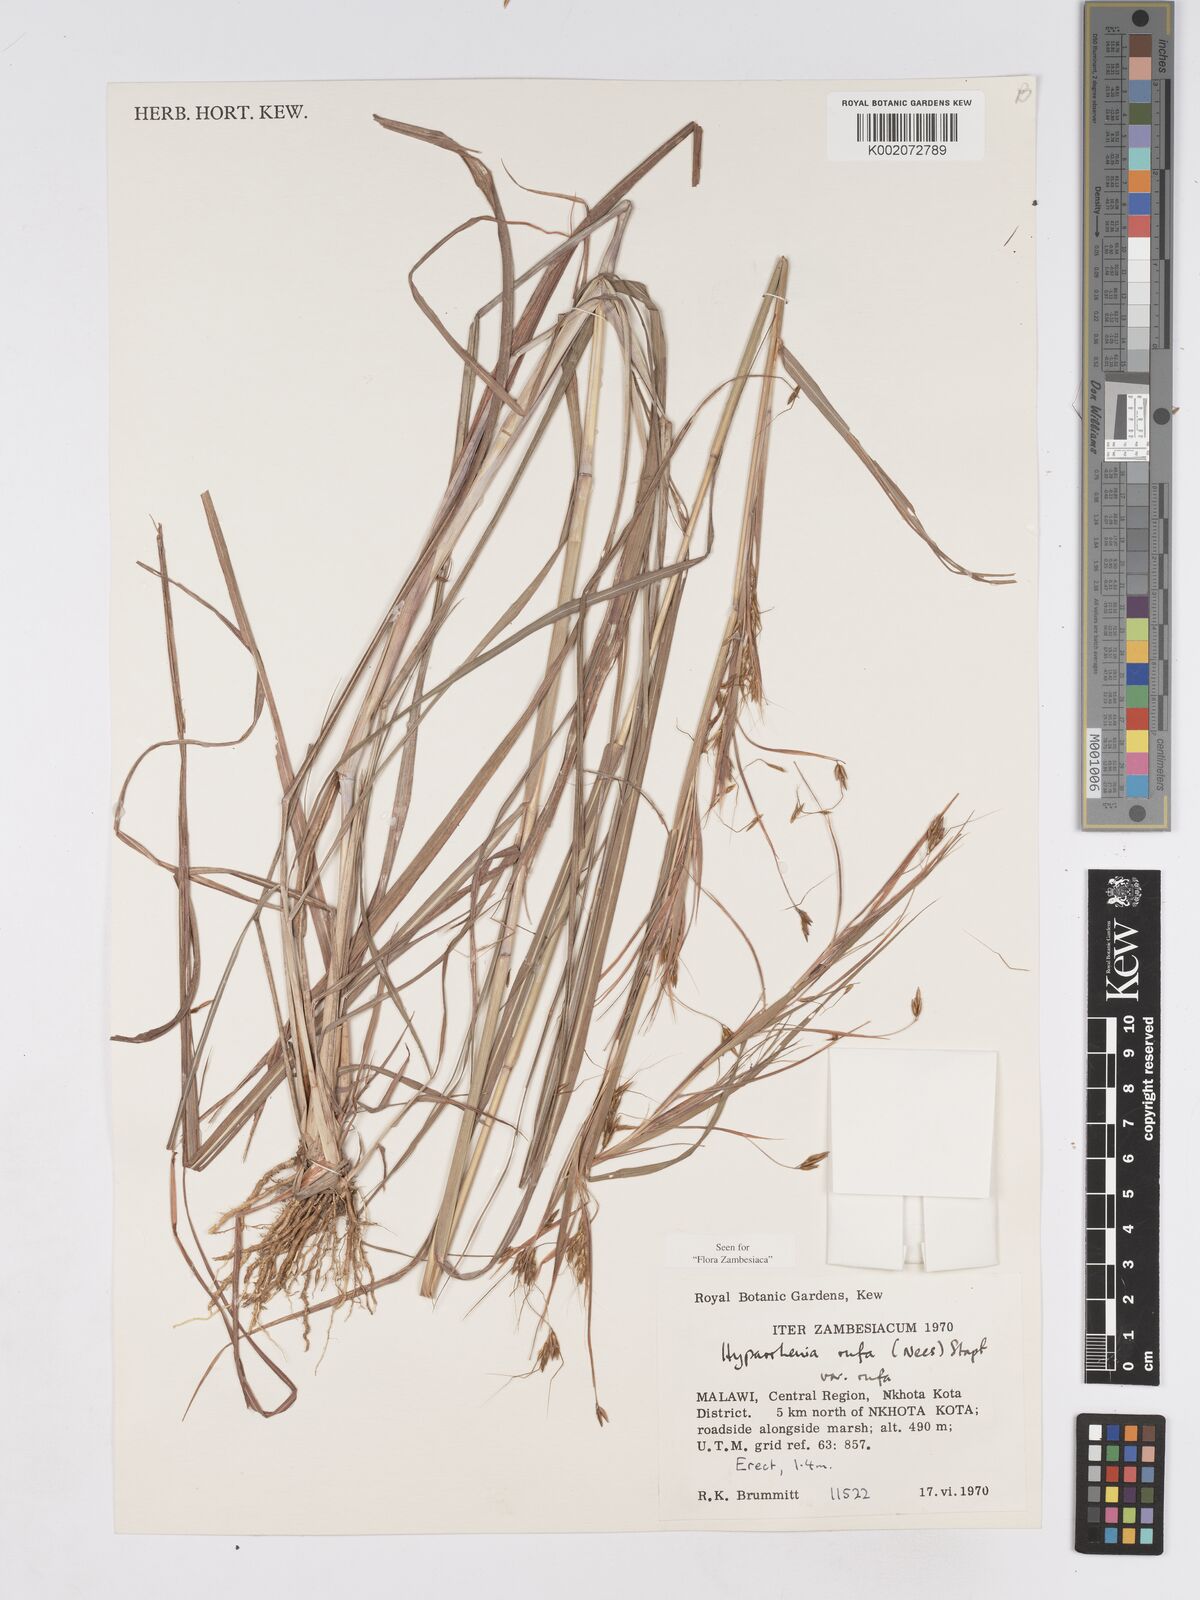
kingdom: Plantae
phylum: Tracheophyta
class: Liliopsida
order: Poales
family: Poaceae
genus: Hyparrhenia
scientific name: Hyparrhenia rufa
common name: Jaraguagrass
